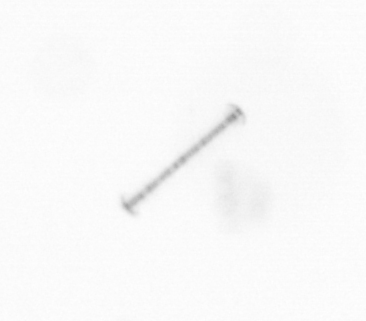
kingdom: Chromista
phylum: Ochrophyta
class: Bacillariophyceae
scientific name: Bacillariophyceae
